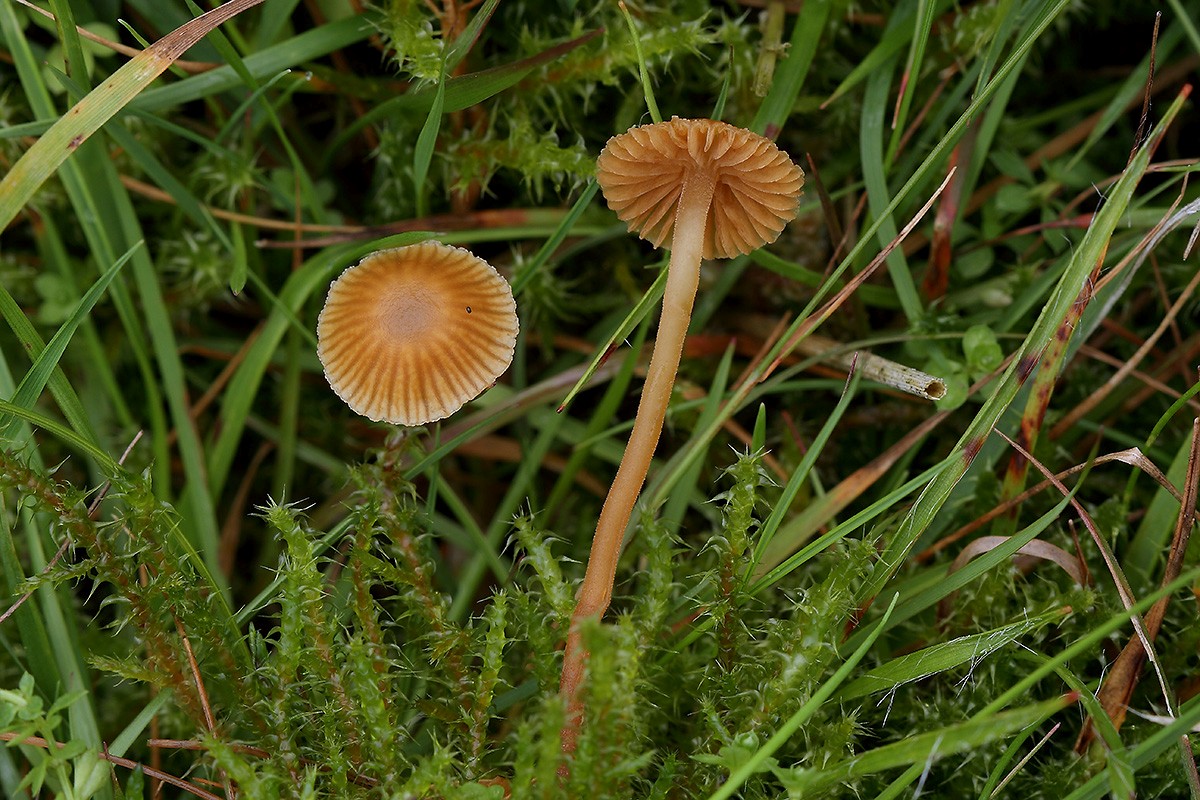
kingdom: Fungi
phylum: Basidiomycota
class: Agaricomycetes
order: Agaricales
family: Hymenogastraceae
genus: Galerina
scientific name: Galerina vittiformis
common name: Hairy leg bell
